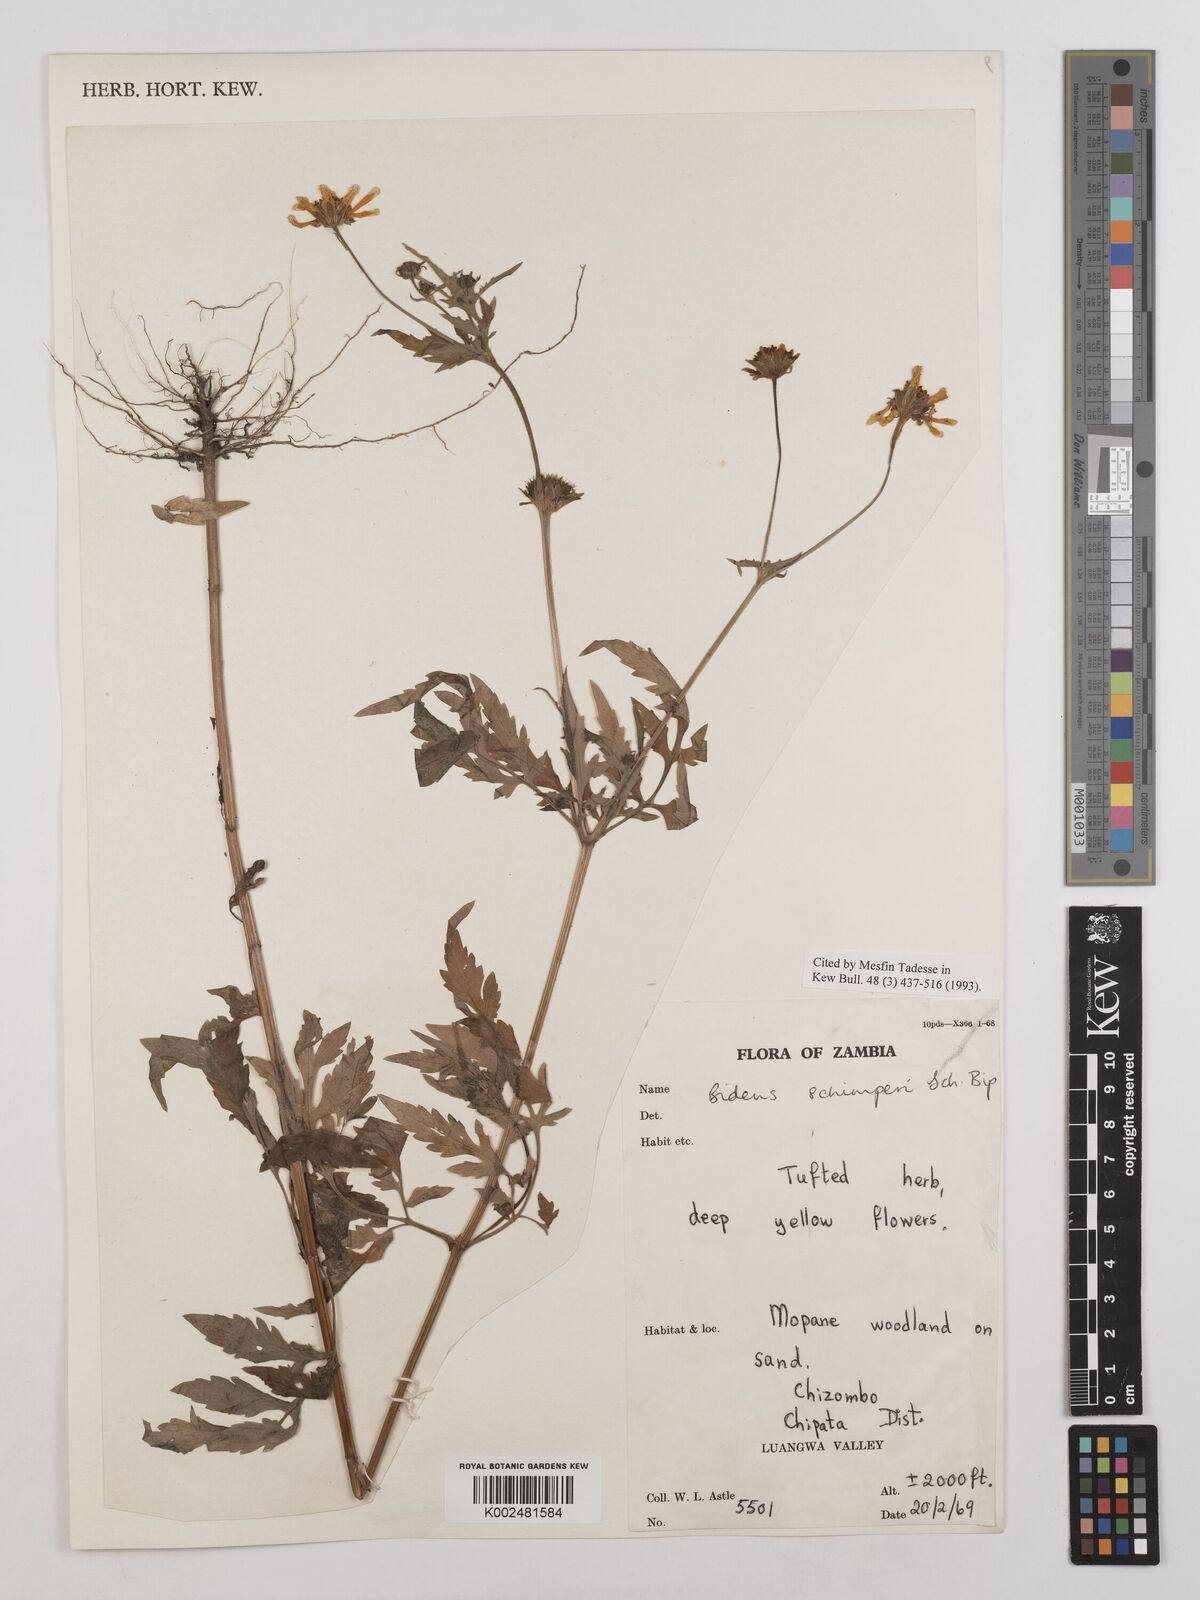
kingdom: Plantae
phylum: Tracheophyta
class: Magnoliopsida
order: Asterales
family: Asteraceae
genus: Bidens
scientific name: Bidens schimperi
